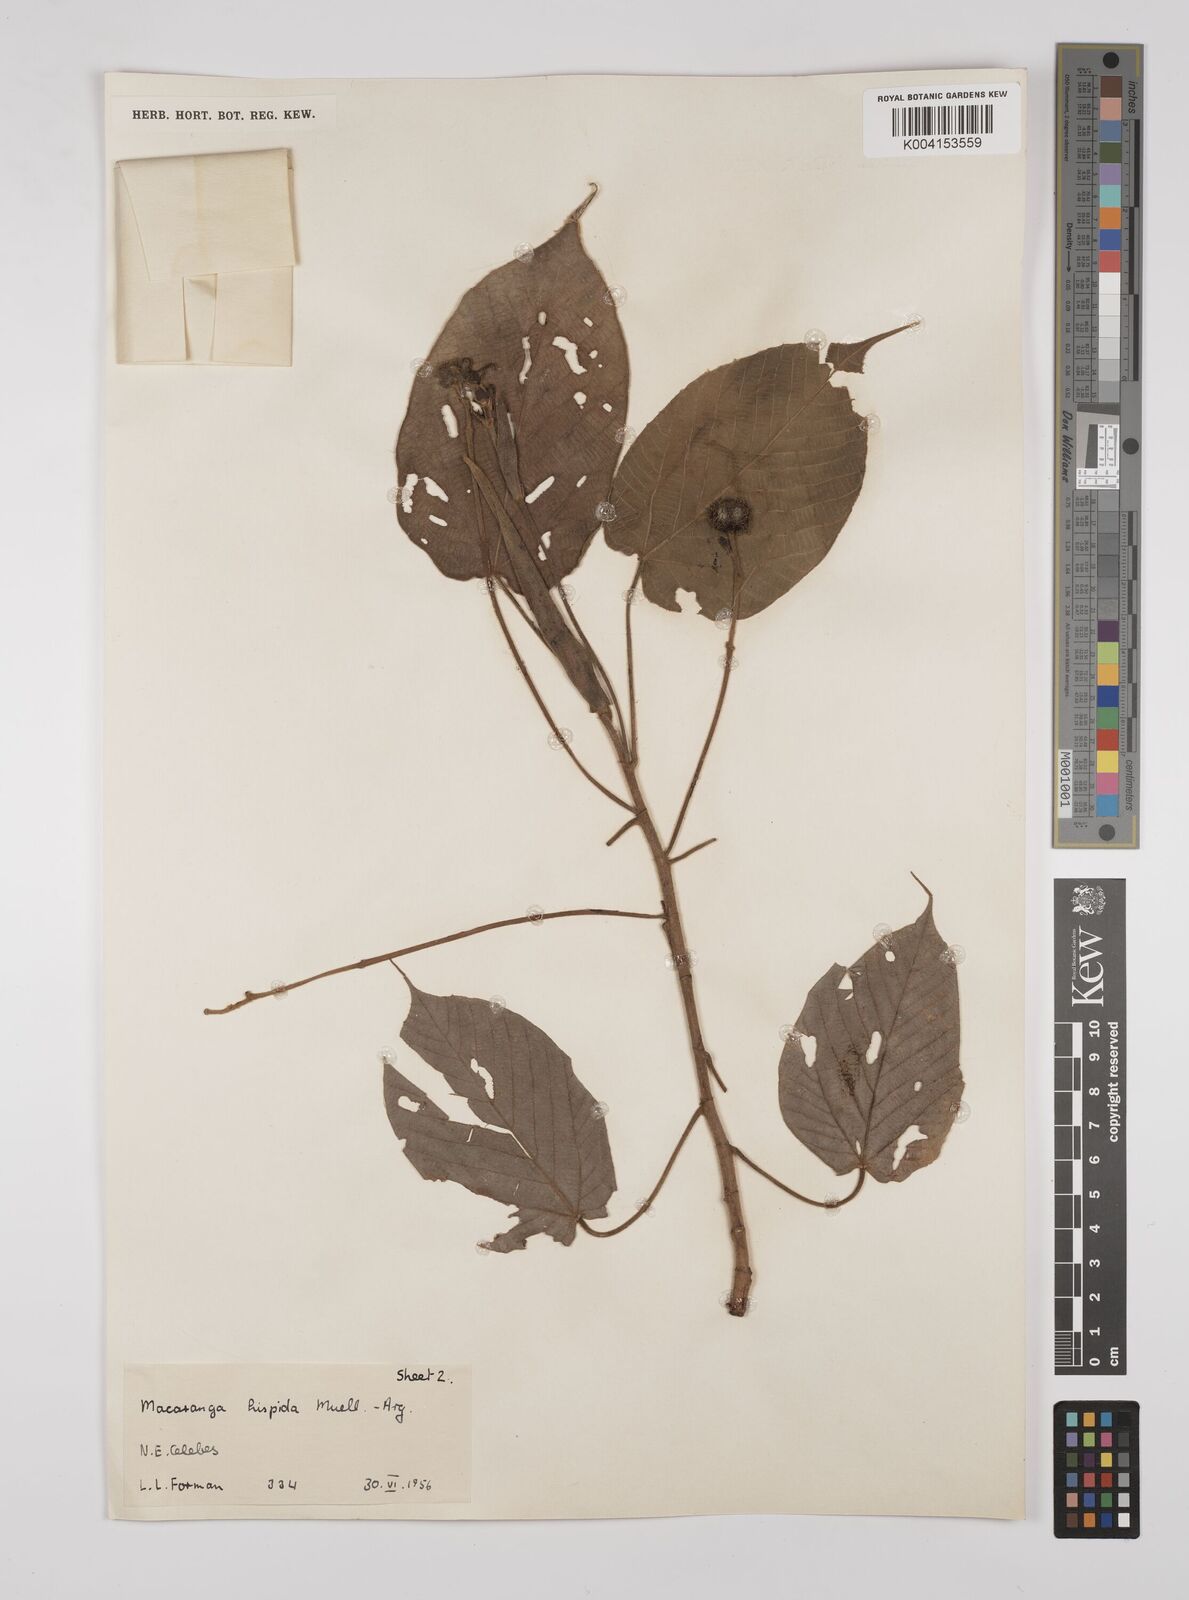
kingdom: Plantae
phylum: Tracheophyta
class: Magnoliopsida
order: Malpighiales
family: Euphorbiaceae
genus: Macaranga
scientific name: Macaranga hispida
